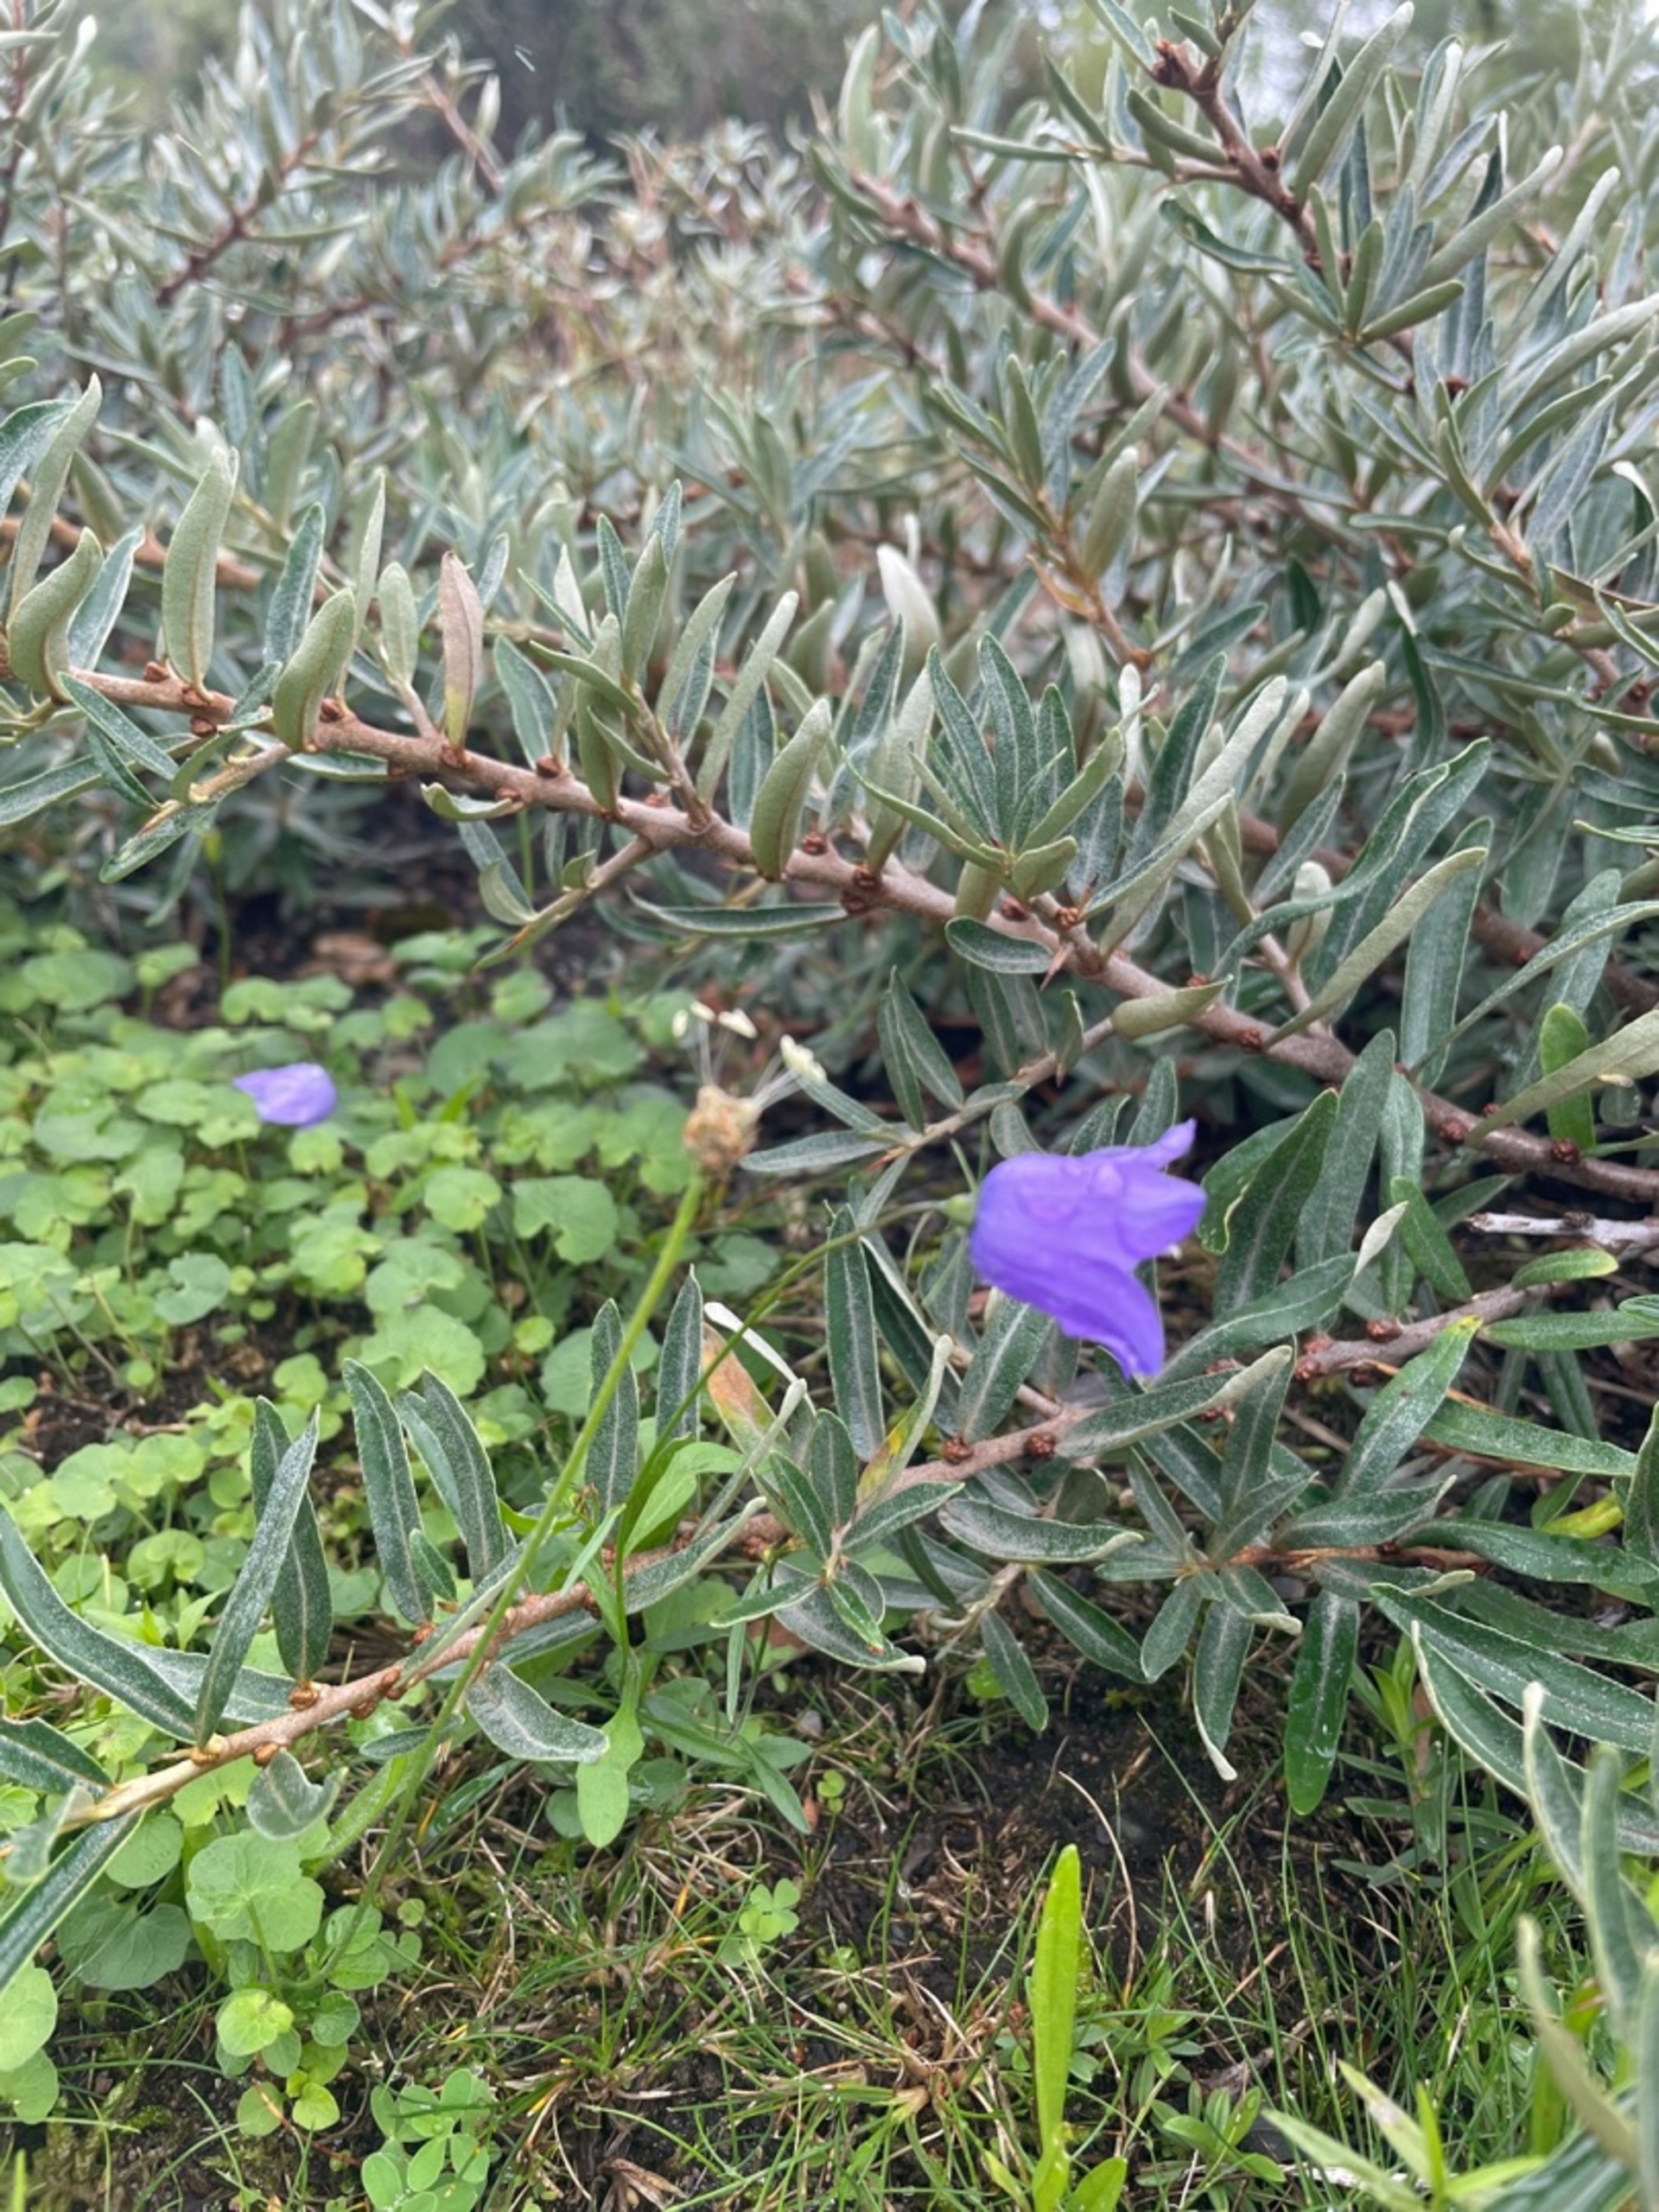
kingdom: Plantae
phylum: Tracheophyta
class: Magnoliopsida
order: Asterales
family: Campanulaceae
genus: Campanula
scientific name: Campanula rotundifolia
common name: Liden klokke
